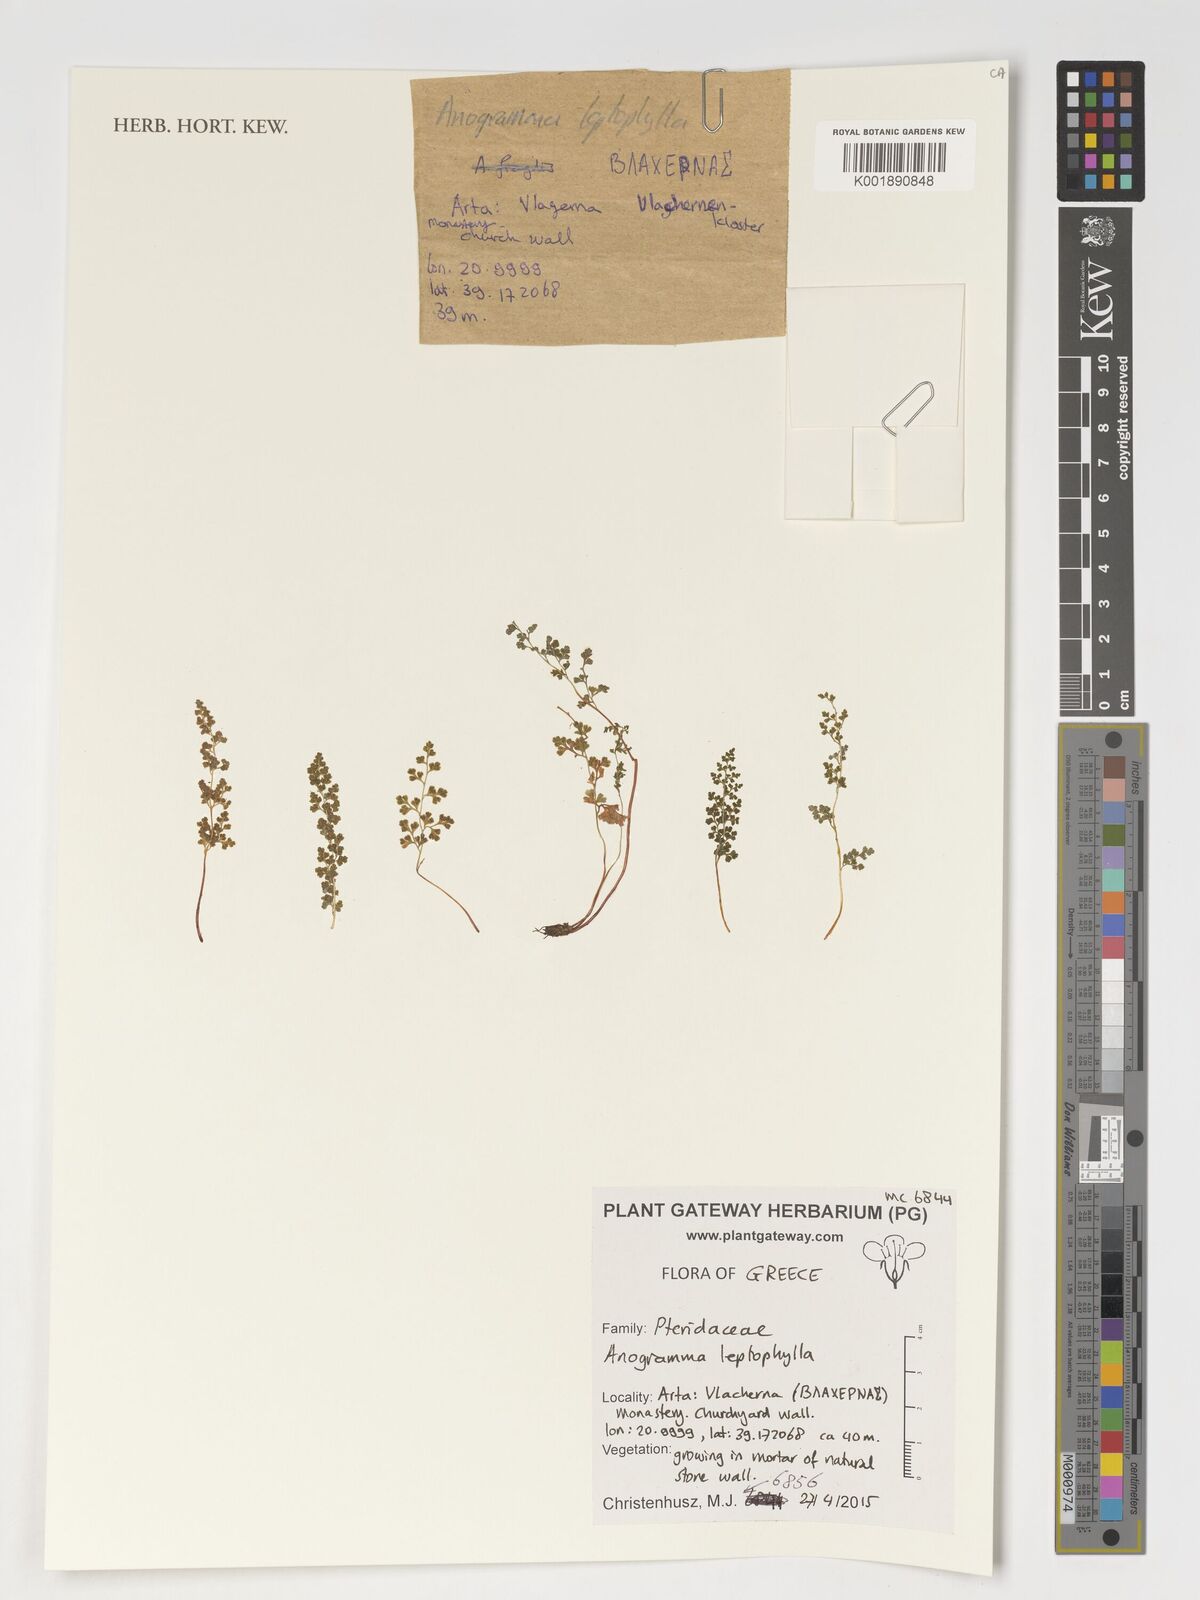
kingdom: Plantae
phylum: Tracheophyta
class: Polypodiopsida
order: Polypodiales
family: Pteridaceae
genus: Anogramma
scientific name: Anogramma leptophylla
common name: Jersey fern
